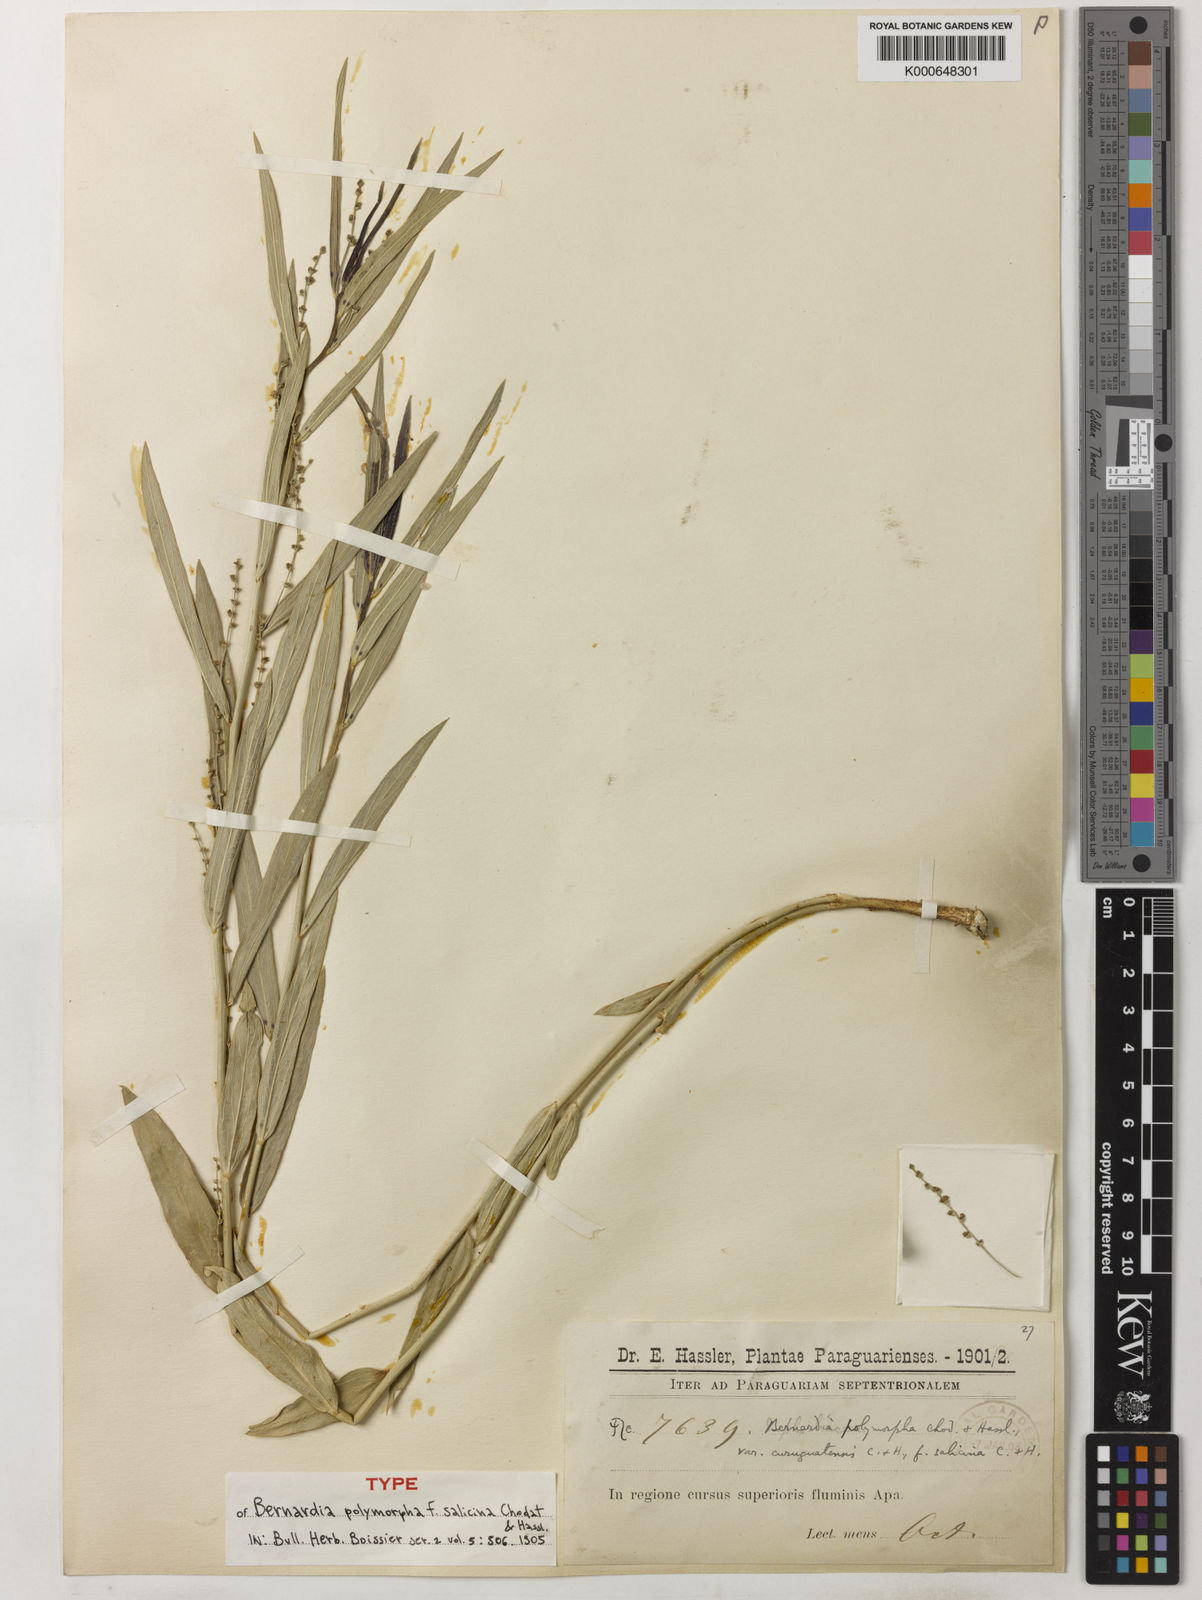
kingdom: Plantae
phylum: Tracheophyta
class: Magnoliopsida
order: Malpighiales
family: Euphorbiaceae
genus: Bernardia
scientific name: Bernardia polymorpha
